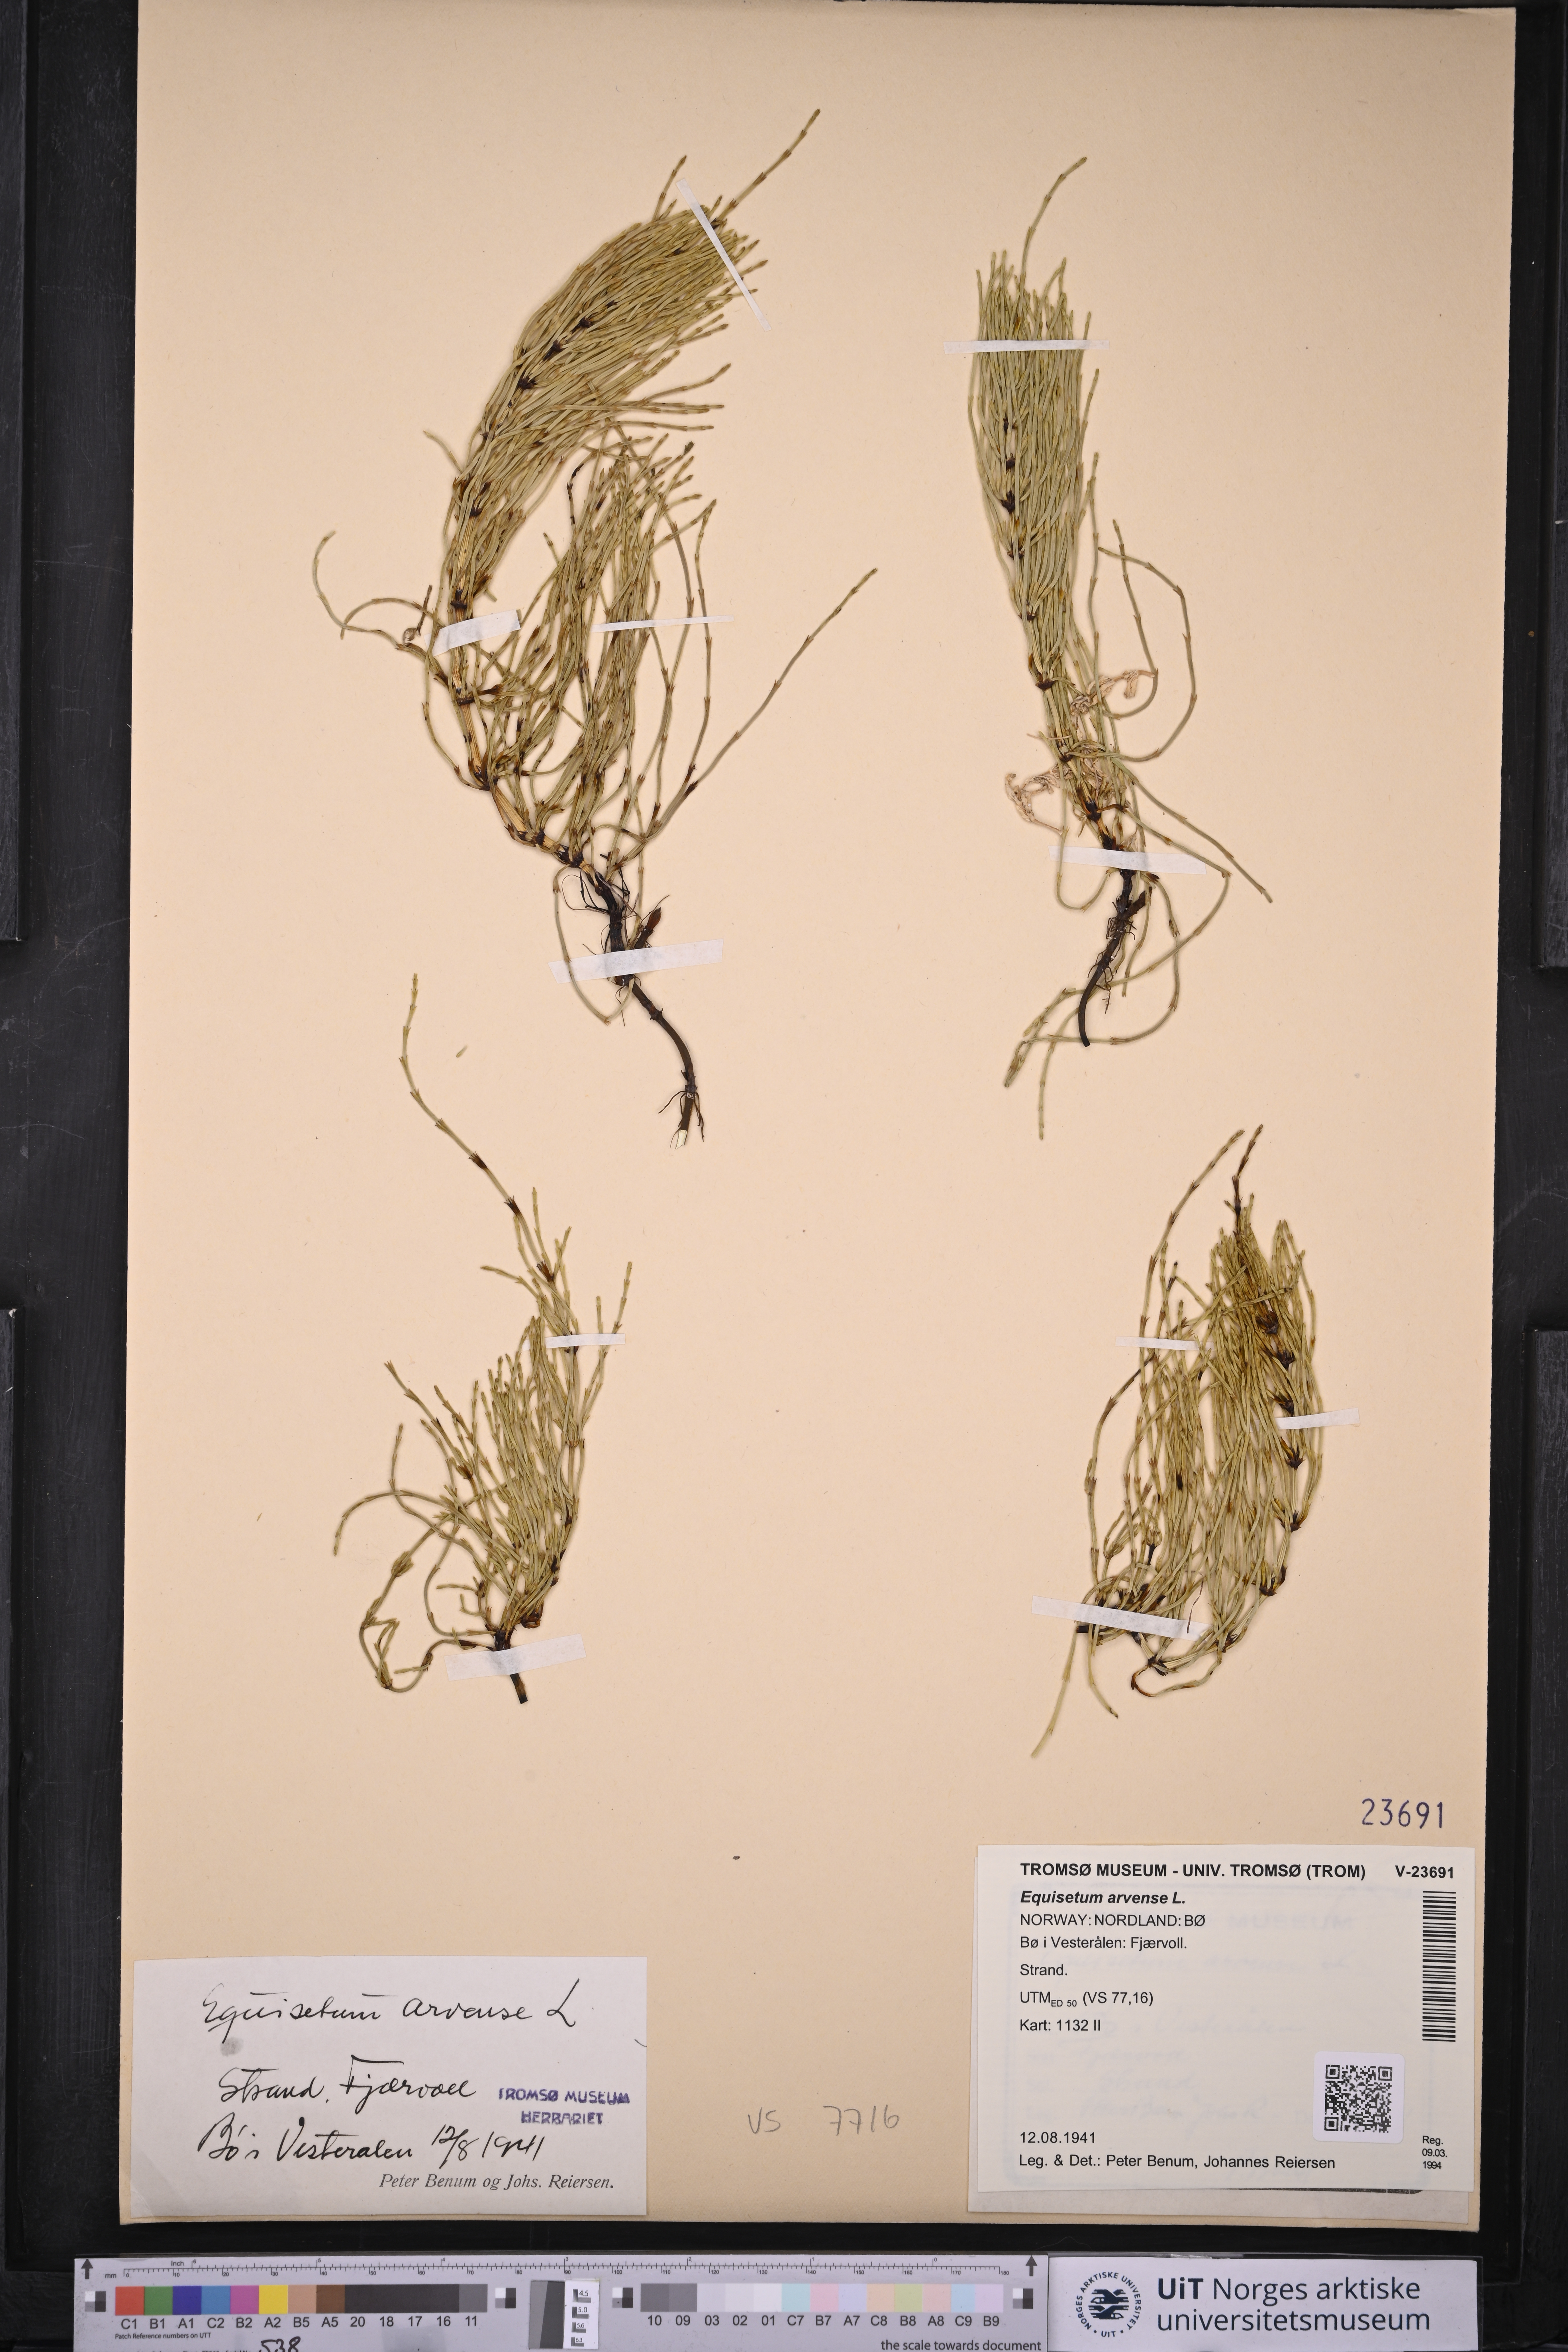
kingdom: Plantae
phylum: Tracheophyta
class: Polypodiopsida
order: Equisetales
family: Equisetaceae
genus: Equisetum
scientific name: Equisetum arvense
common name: Field horsetail
